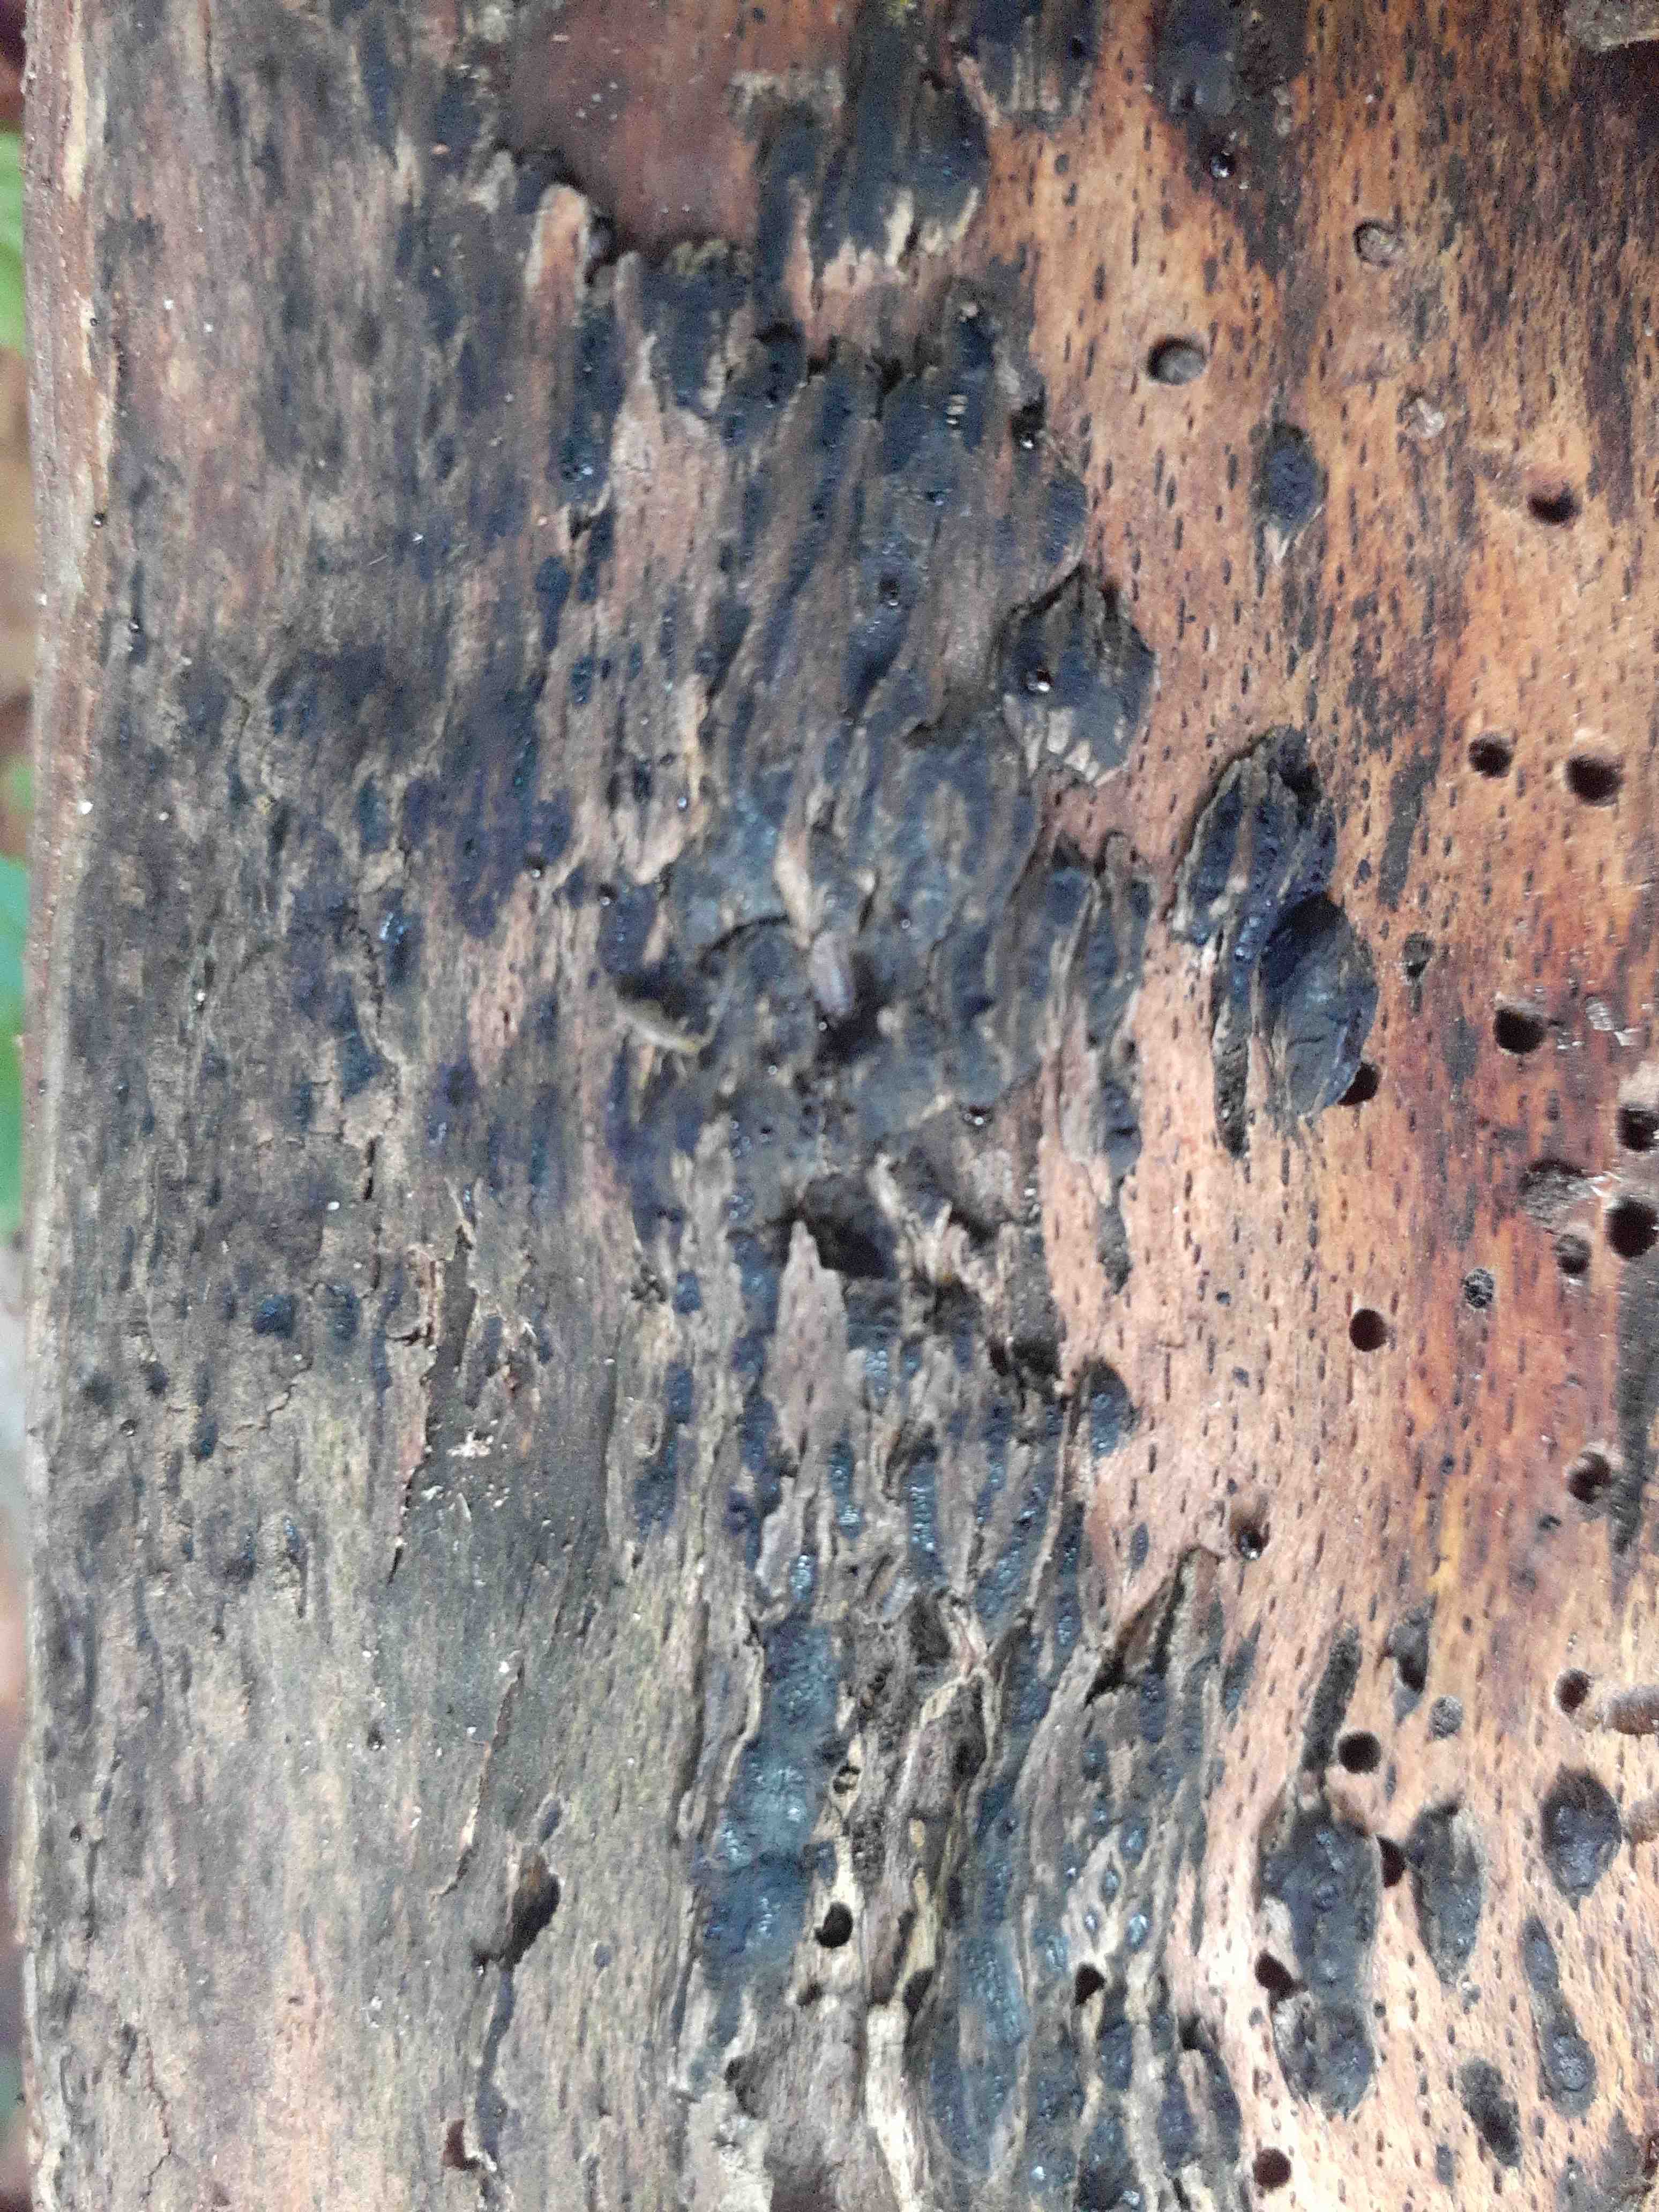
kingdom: Fungi
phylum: Ascomycota
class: Sordariomycetes
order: Boliniales
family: Boliniaceae
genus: Camaropella
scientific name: Camaropella lutea
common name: gulsplint-kulsnegl
